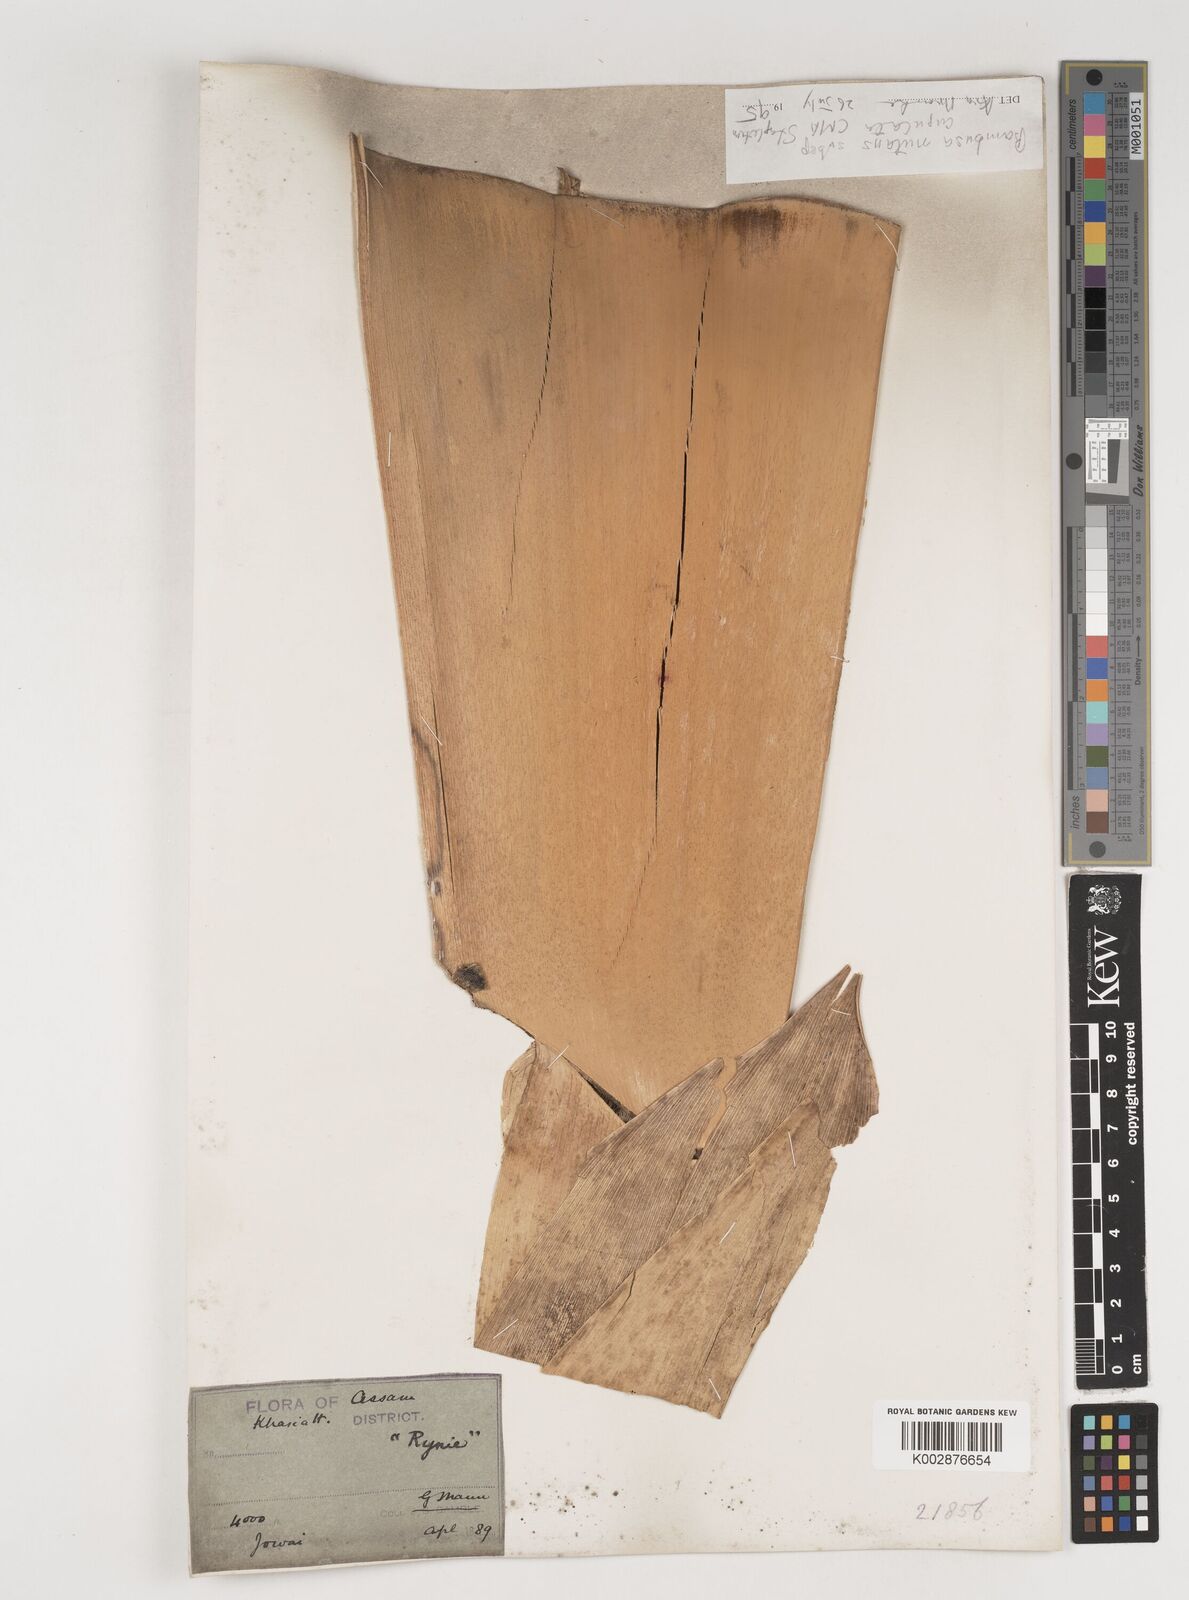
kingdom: Plantae
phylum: Tracheophyta
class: Liliopsida
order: Poales
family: Poaceae
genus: Bambusa
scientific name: Bambusa nutans
